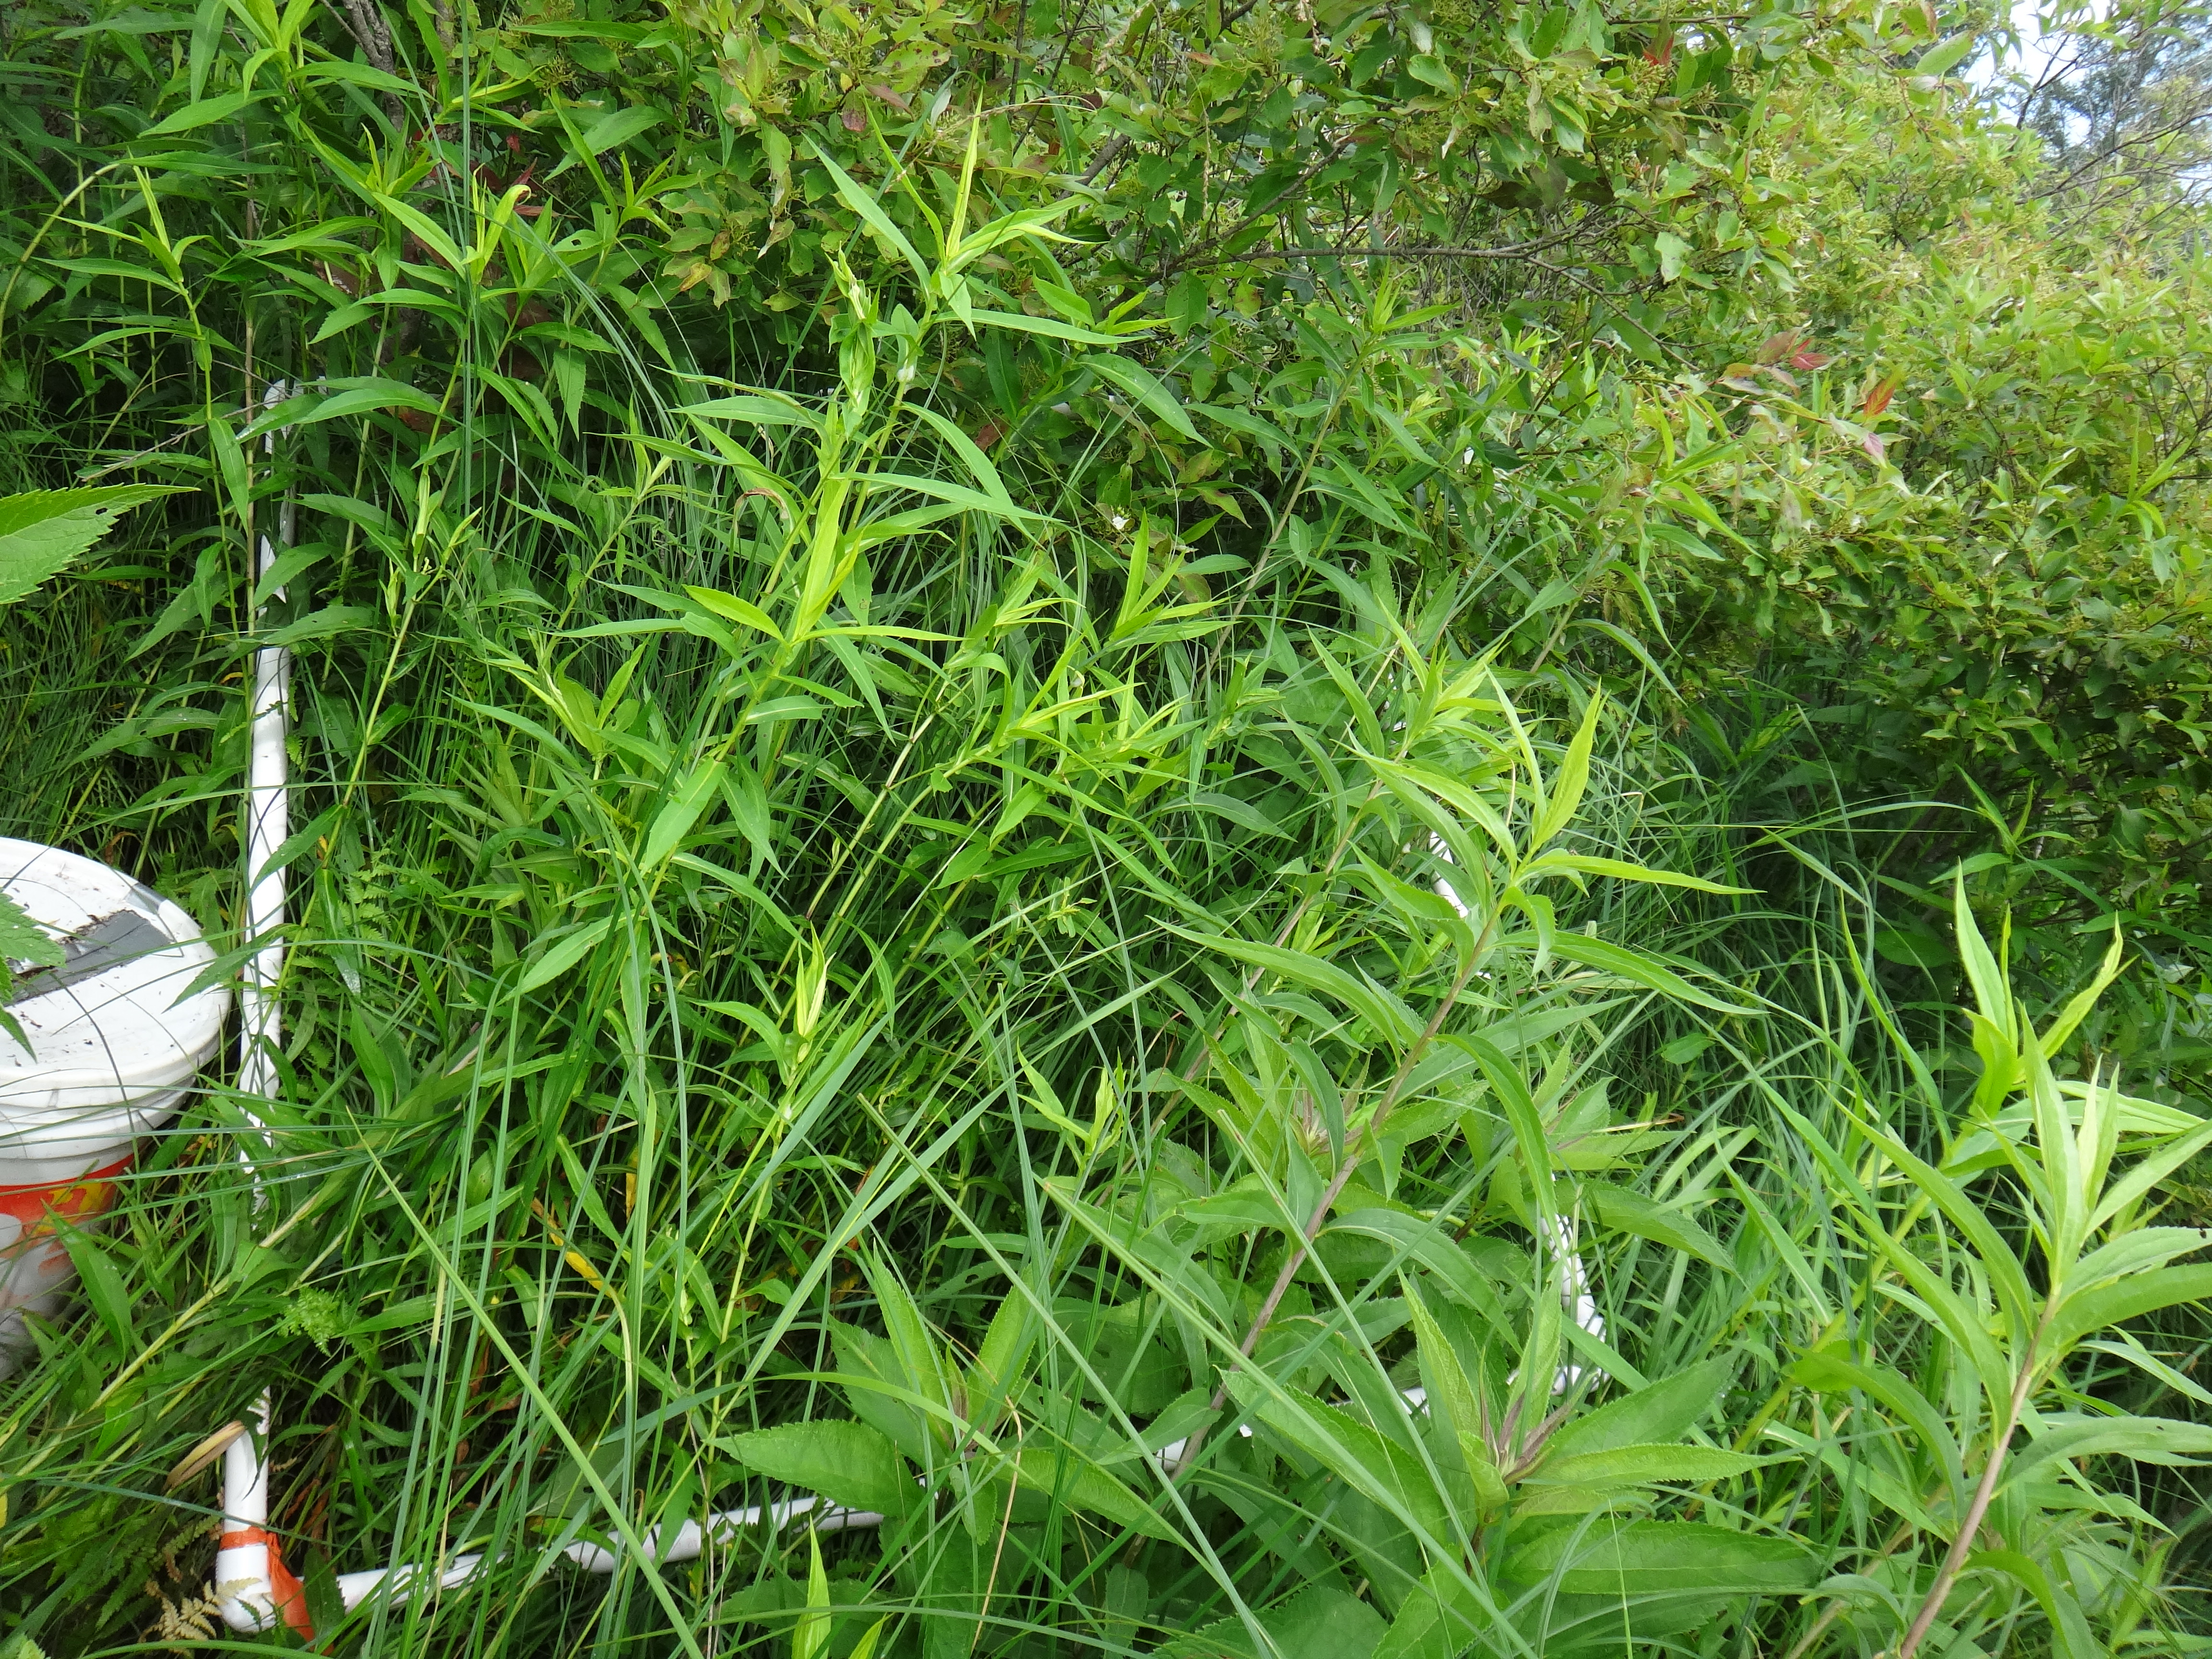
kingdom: Plantae
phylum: Tracheophyta
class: Magnoliopsida
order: Asterales
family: Asteraceae
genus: Solidago
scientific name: Solidago canadensis
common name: Canada goldenrod
